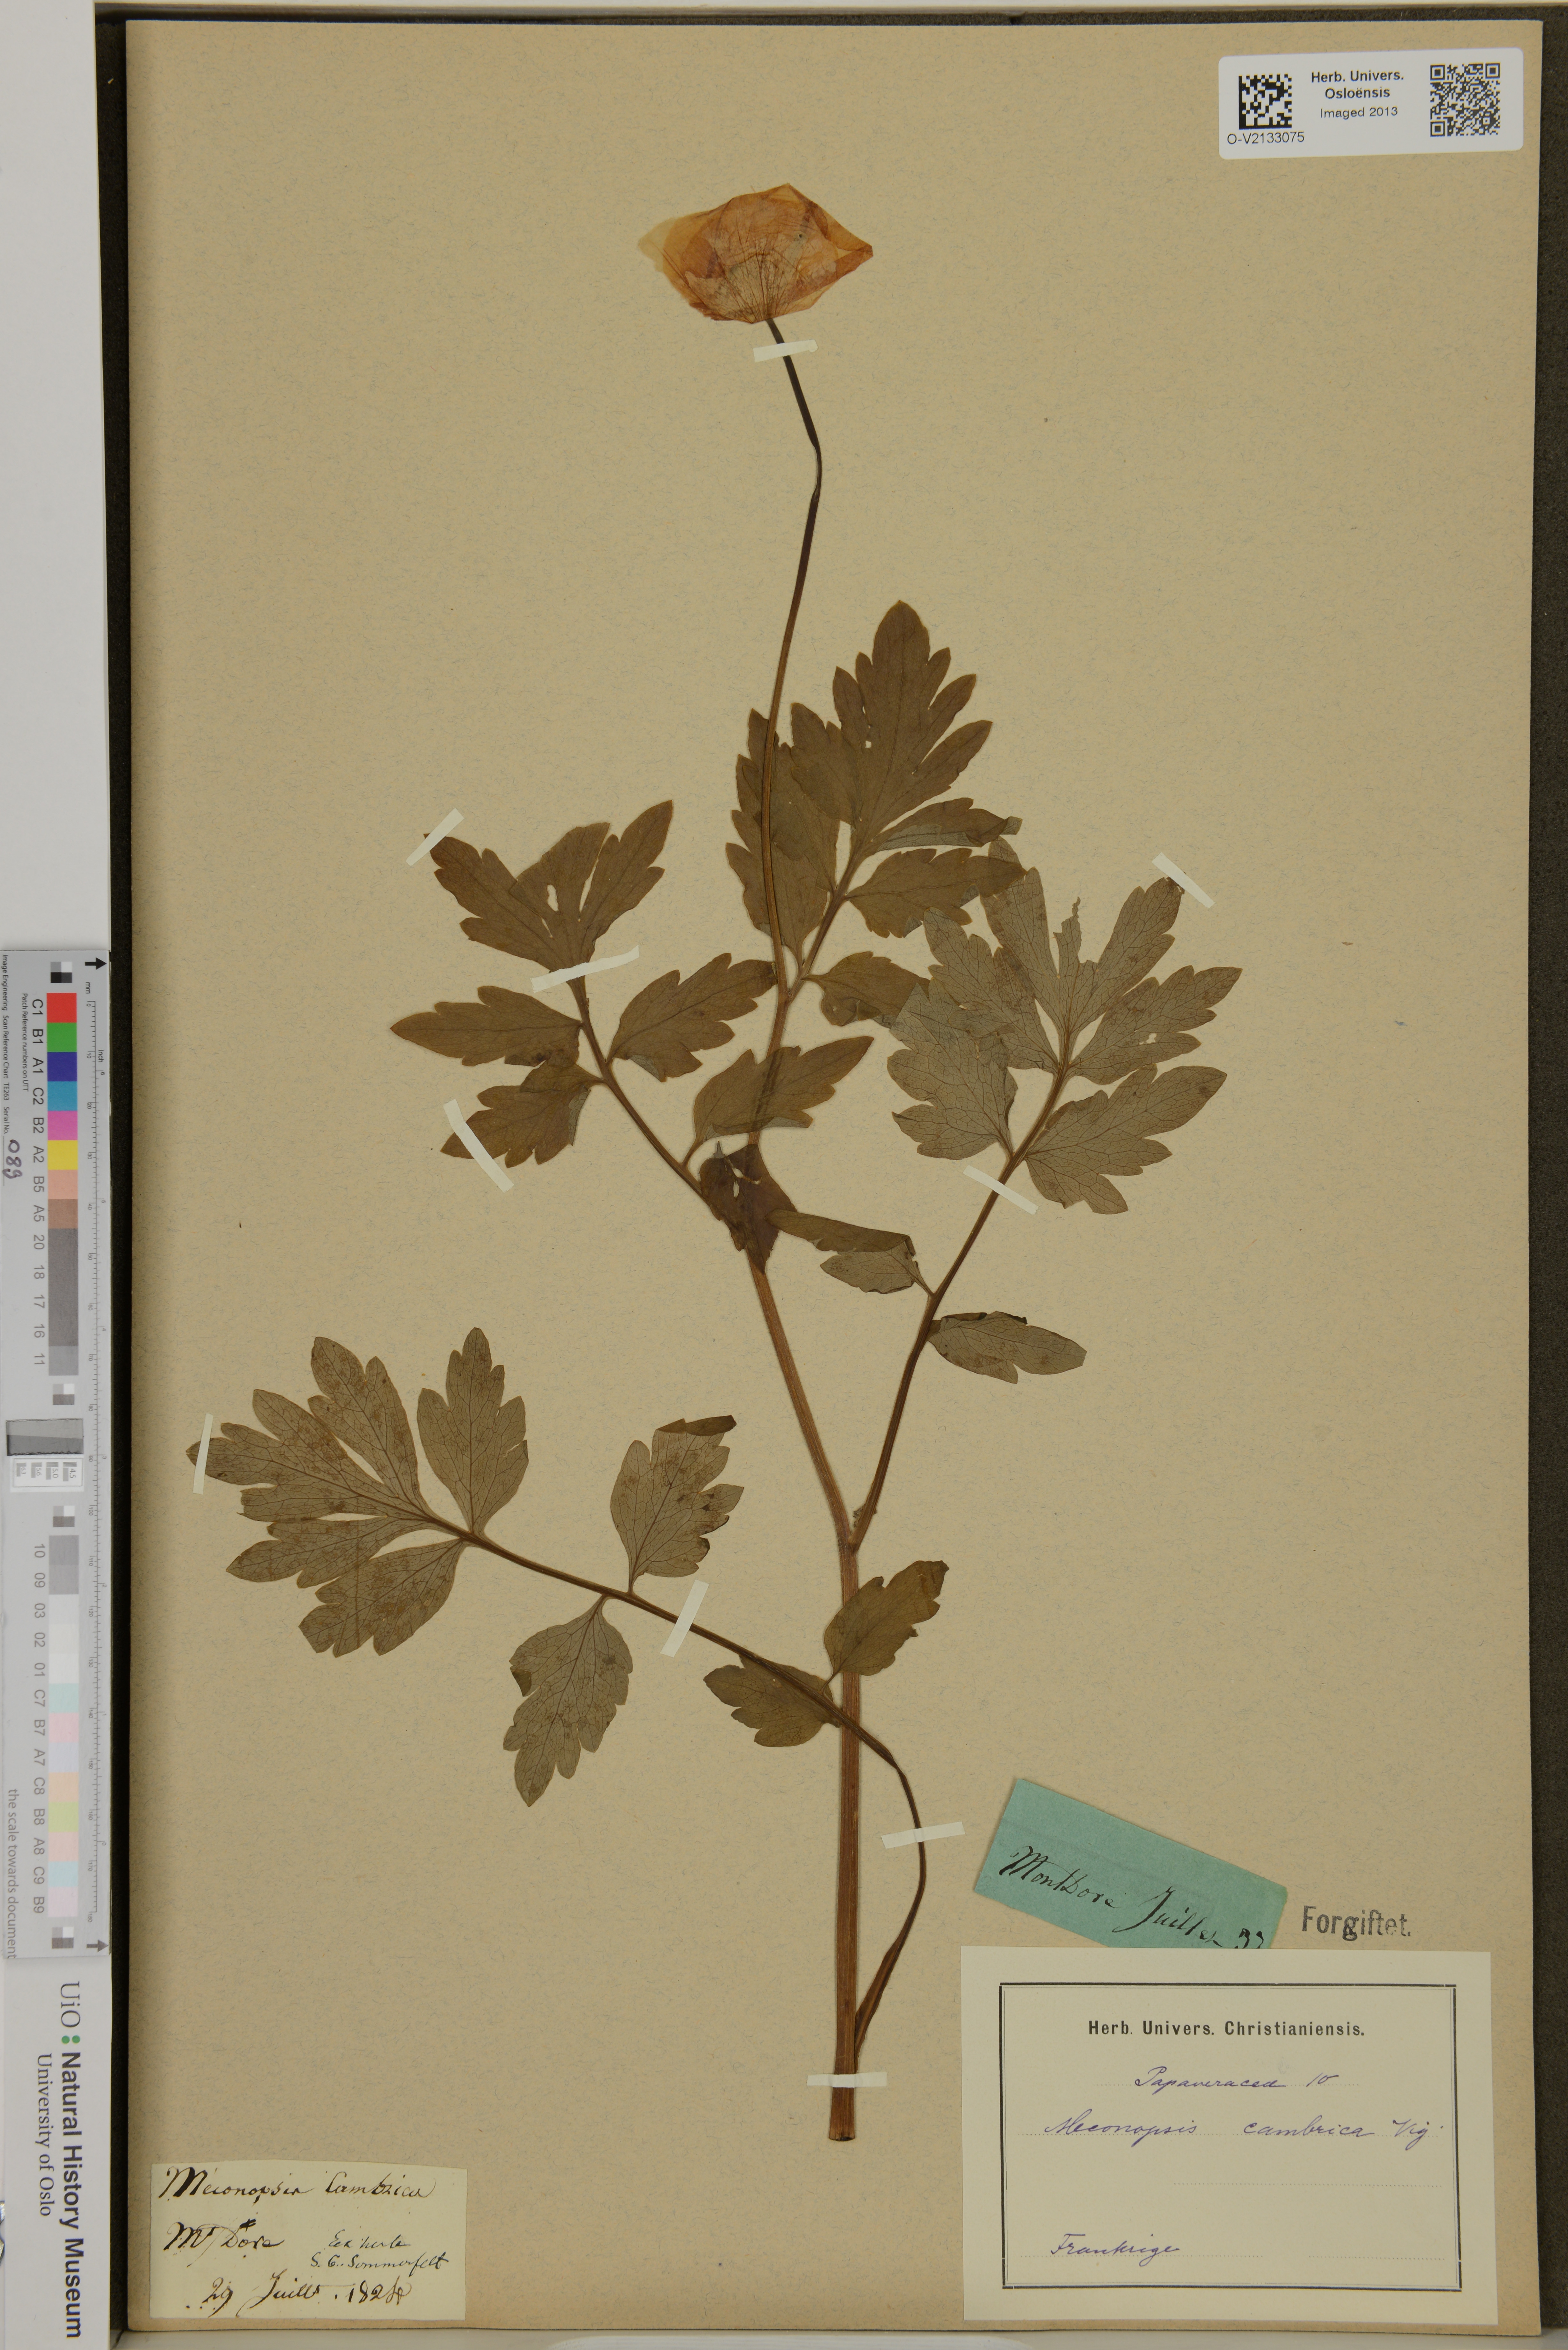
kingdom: Plantae
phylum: Tracheophyta
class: Magnoliopsida
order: Ranunculales
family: Papaveraceae
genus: Papaver
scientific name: Papaver cambricum
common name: Poppy
